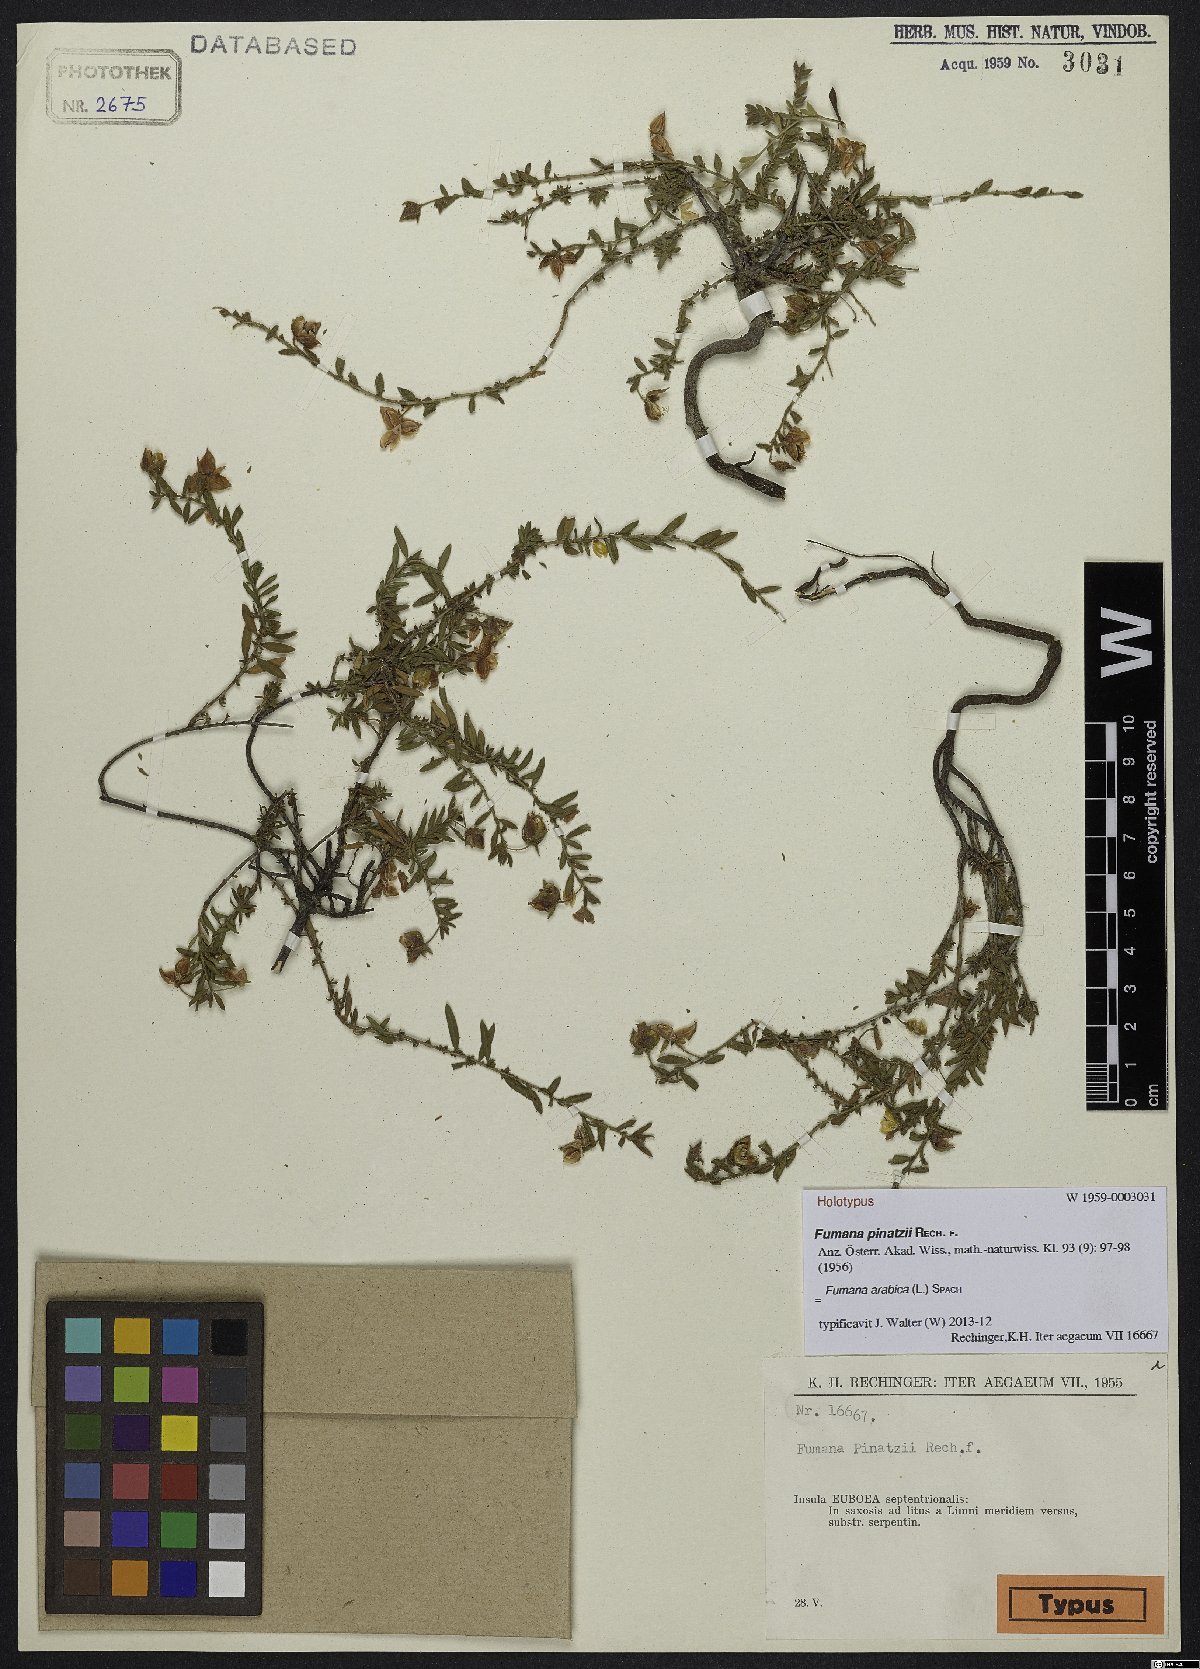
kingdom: Plantae
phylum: Tracheophyta
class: Magnoliopsida
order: Malvales
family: Cistaceae
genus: Fumana
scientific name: Fumana arabica
